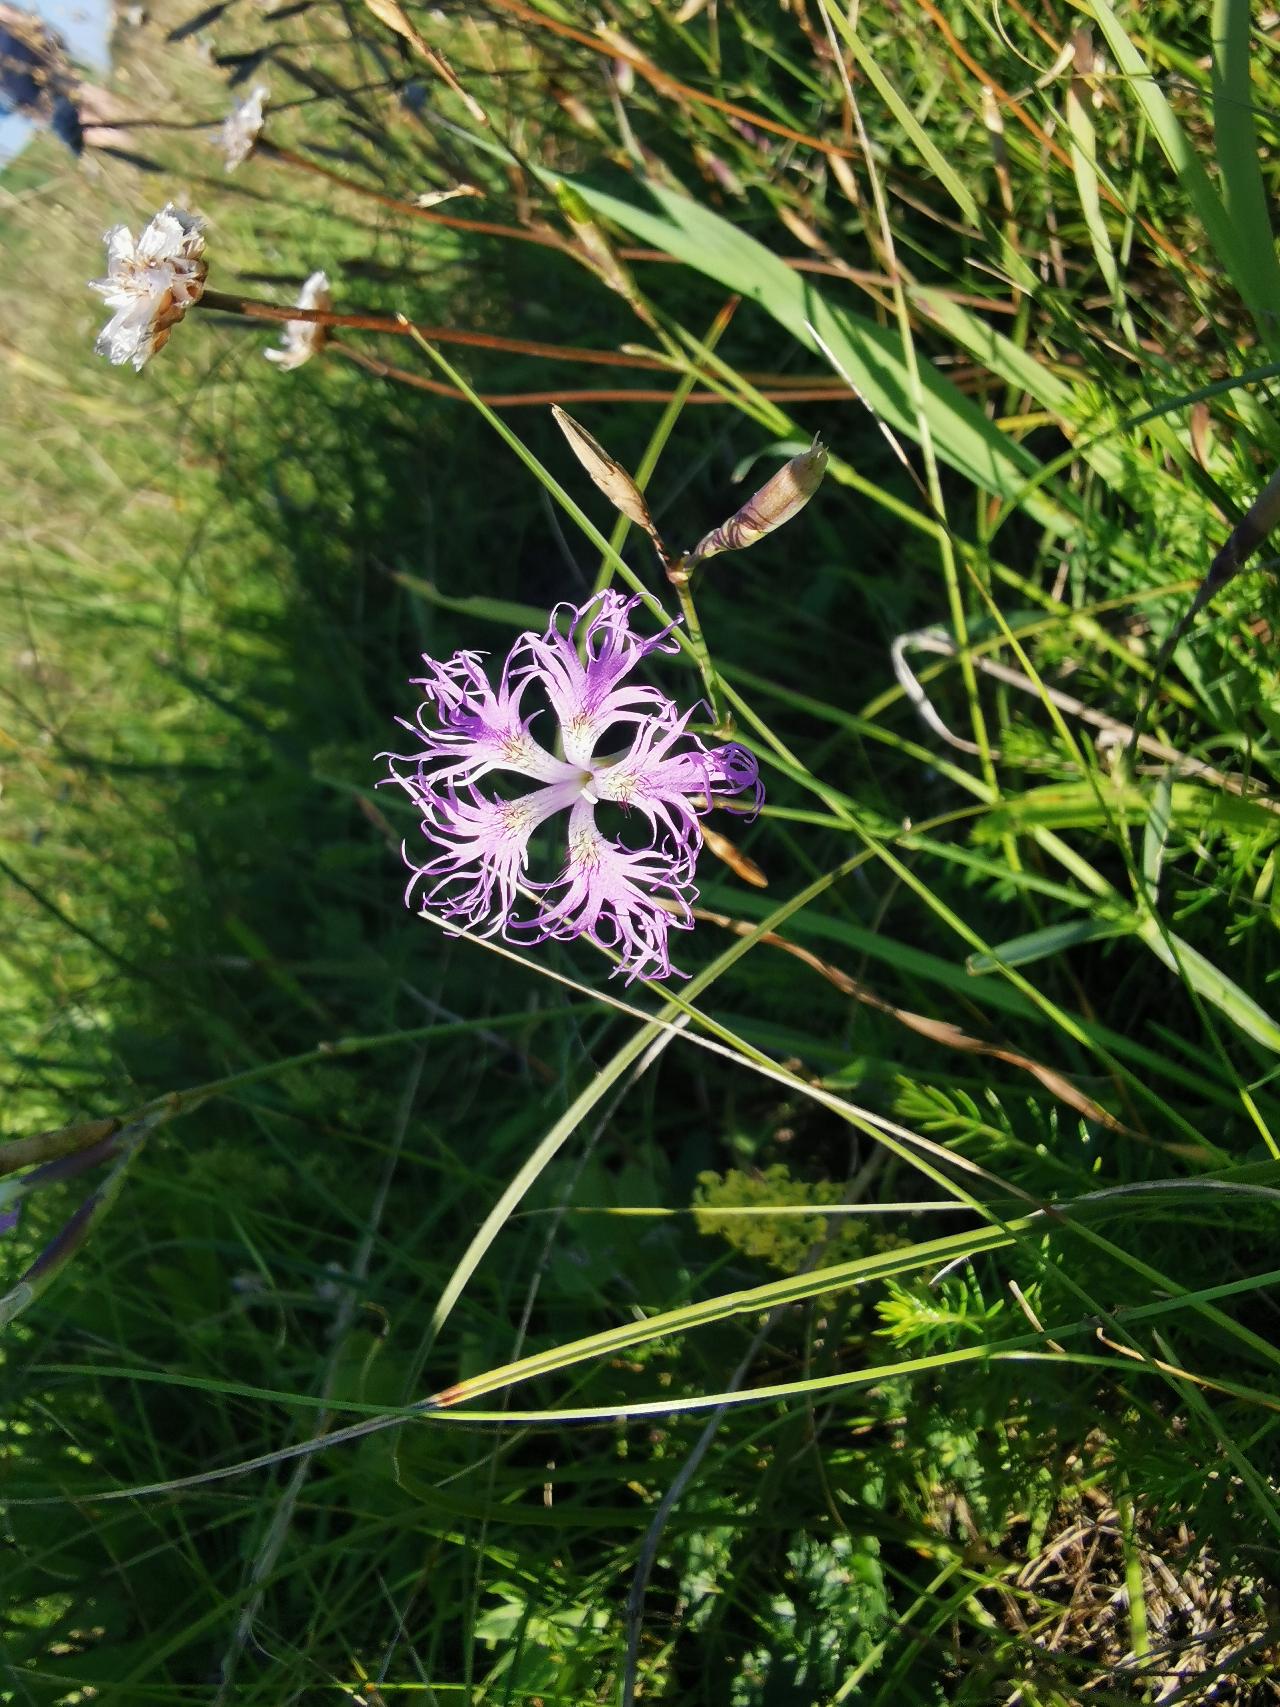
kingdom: Plantae
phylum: Tracheophyta
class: Magnoliopsida
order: Caryophyllales
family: Caryophyllaceae
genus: Dianthus
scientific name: Dianthus superbus
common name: Strand-nellike
